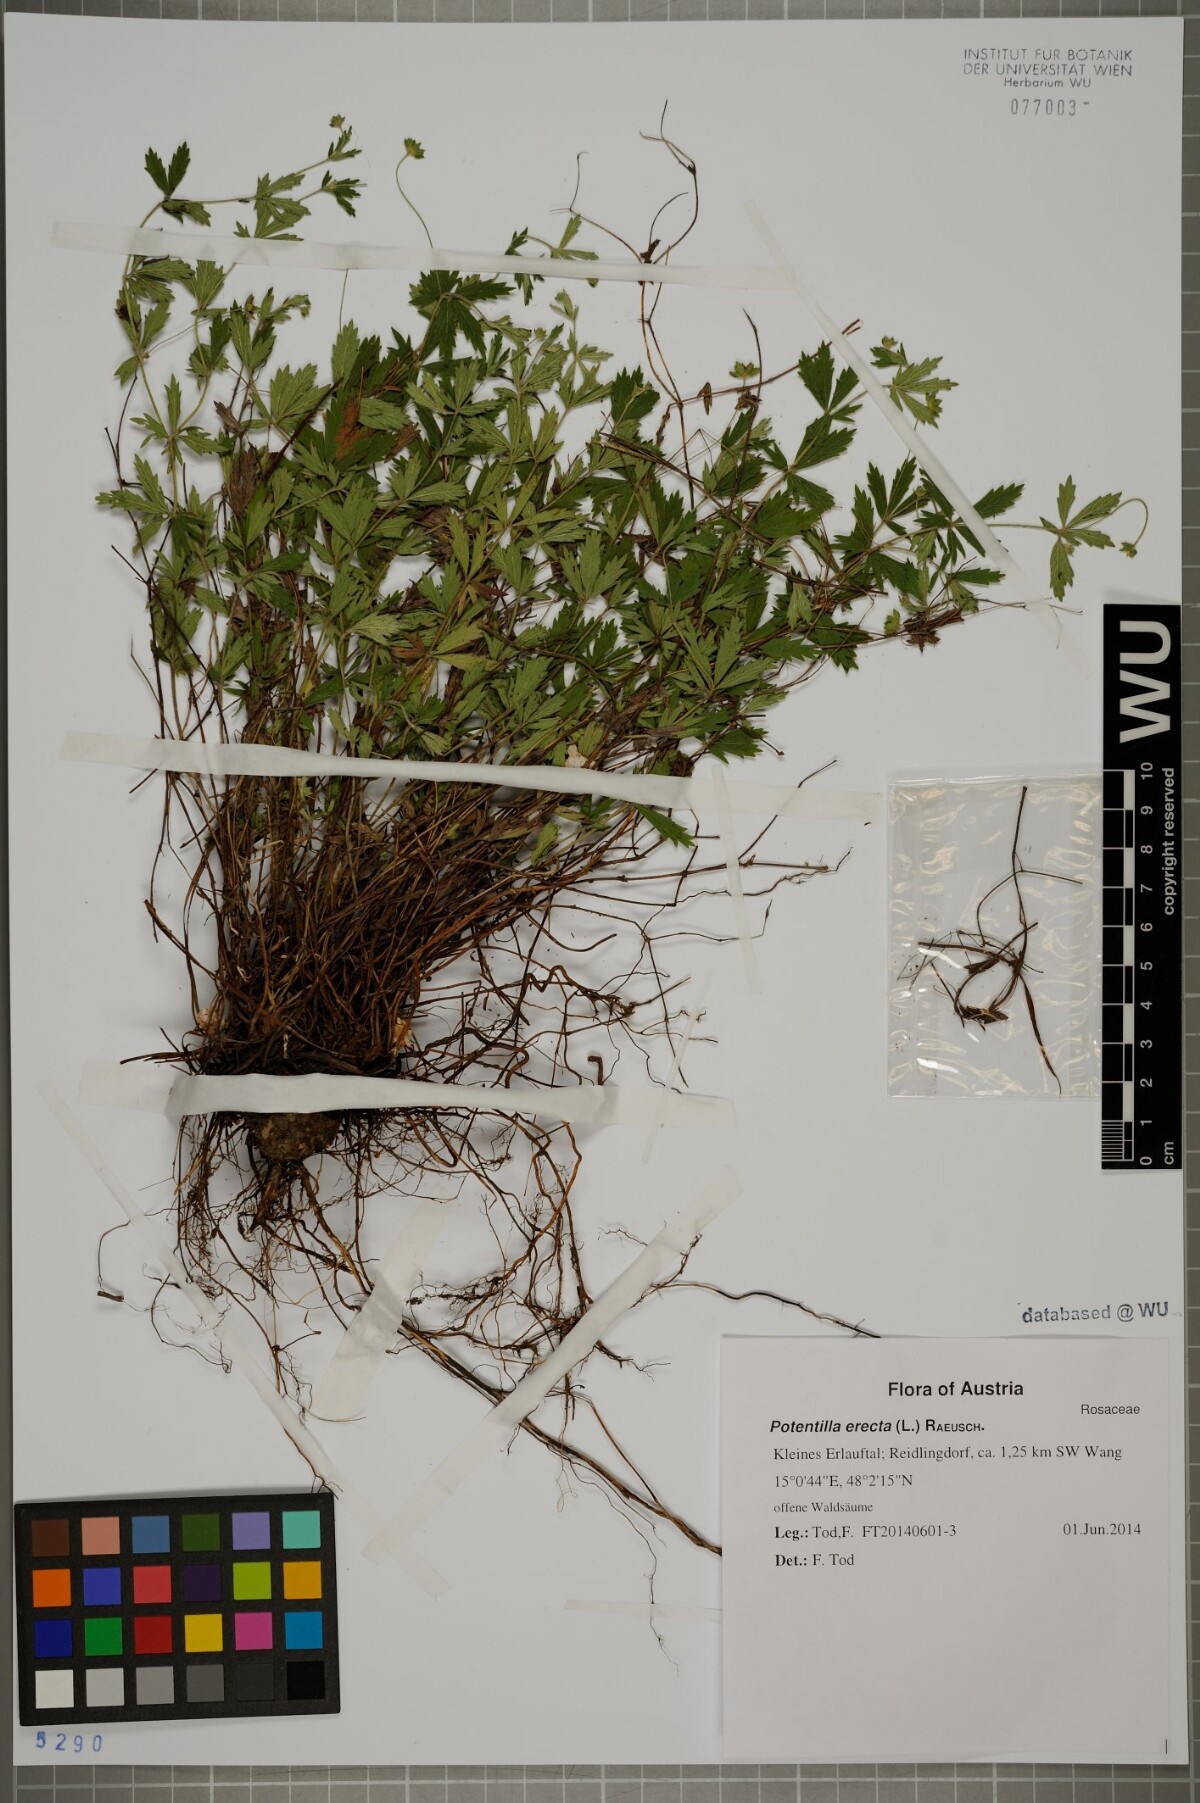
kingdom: Plantae
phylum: Tracheophyta
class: Magnoliopsida
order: Rosales
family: Rosaceae
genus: Potentilla
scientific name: Potentilla erecta
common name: Tormentil
